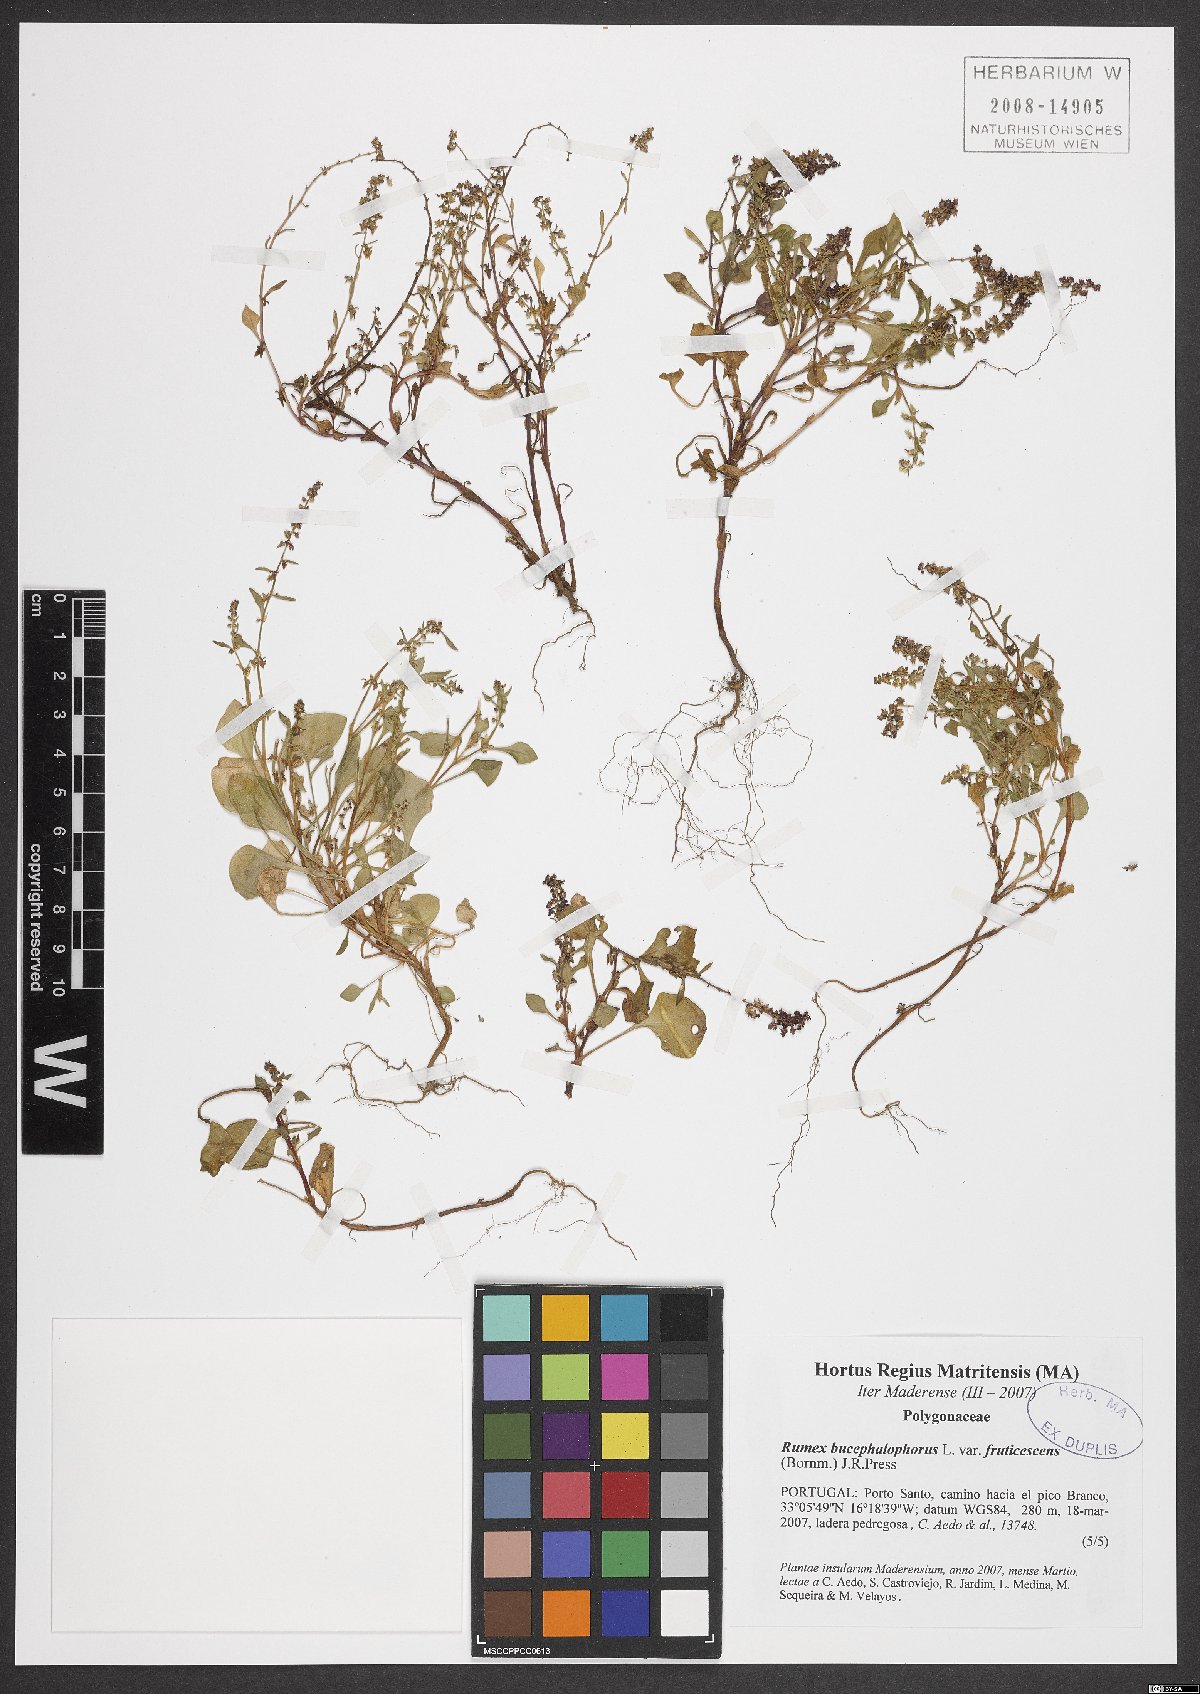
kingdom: Plantae
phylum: Tracheophyta
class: Magnoliopsida
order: Caryophyllales
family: Polygonaceae
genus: Rumex
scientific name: Rumex bucephalophorus
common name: Red dock
